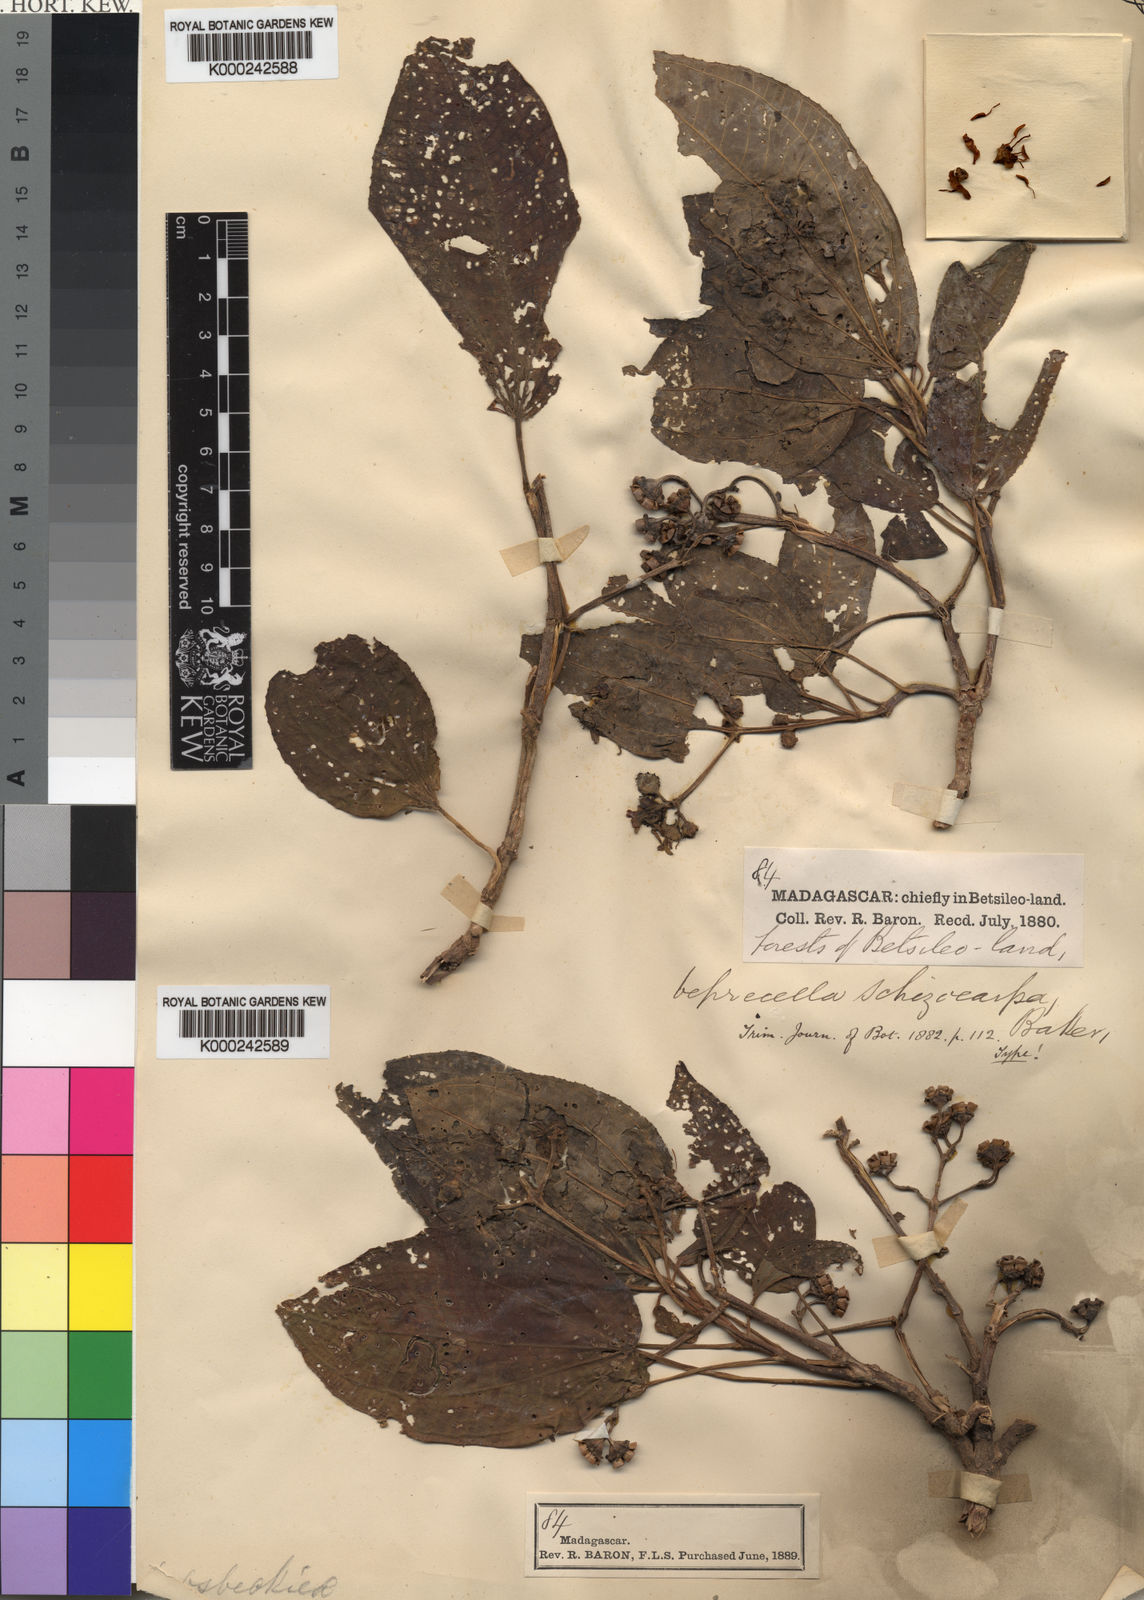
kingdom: Plantae
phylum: Tracheophyta
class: Magnoliopsida
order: Myrtales
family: Melastomataceae
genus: Gravesia
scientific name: Gravesia macrophylla
